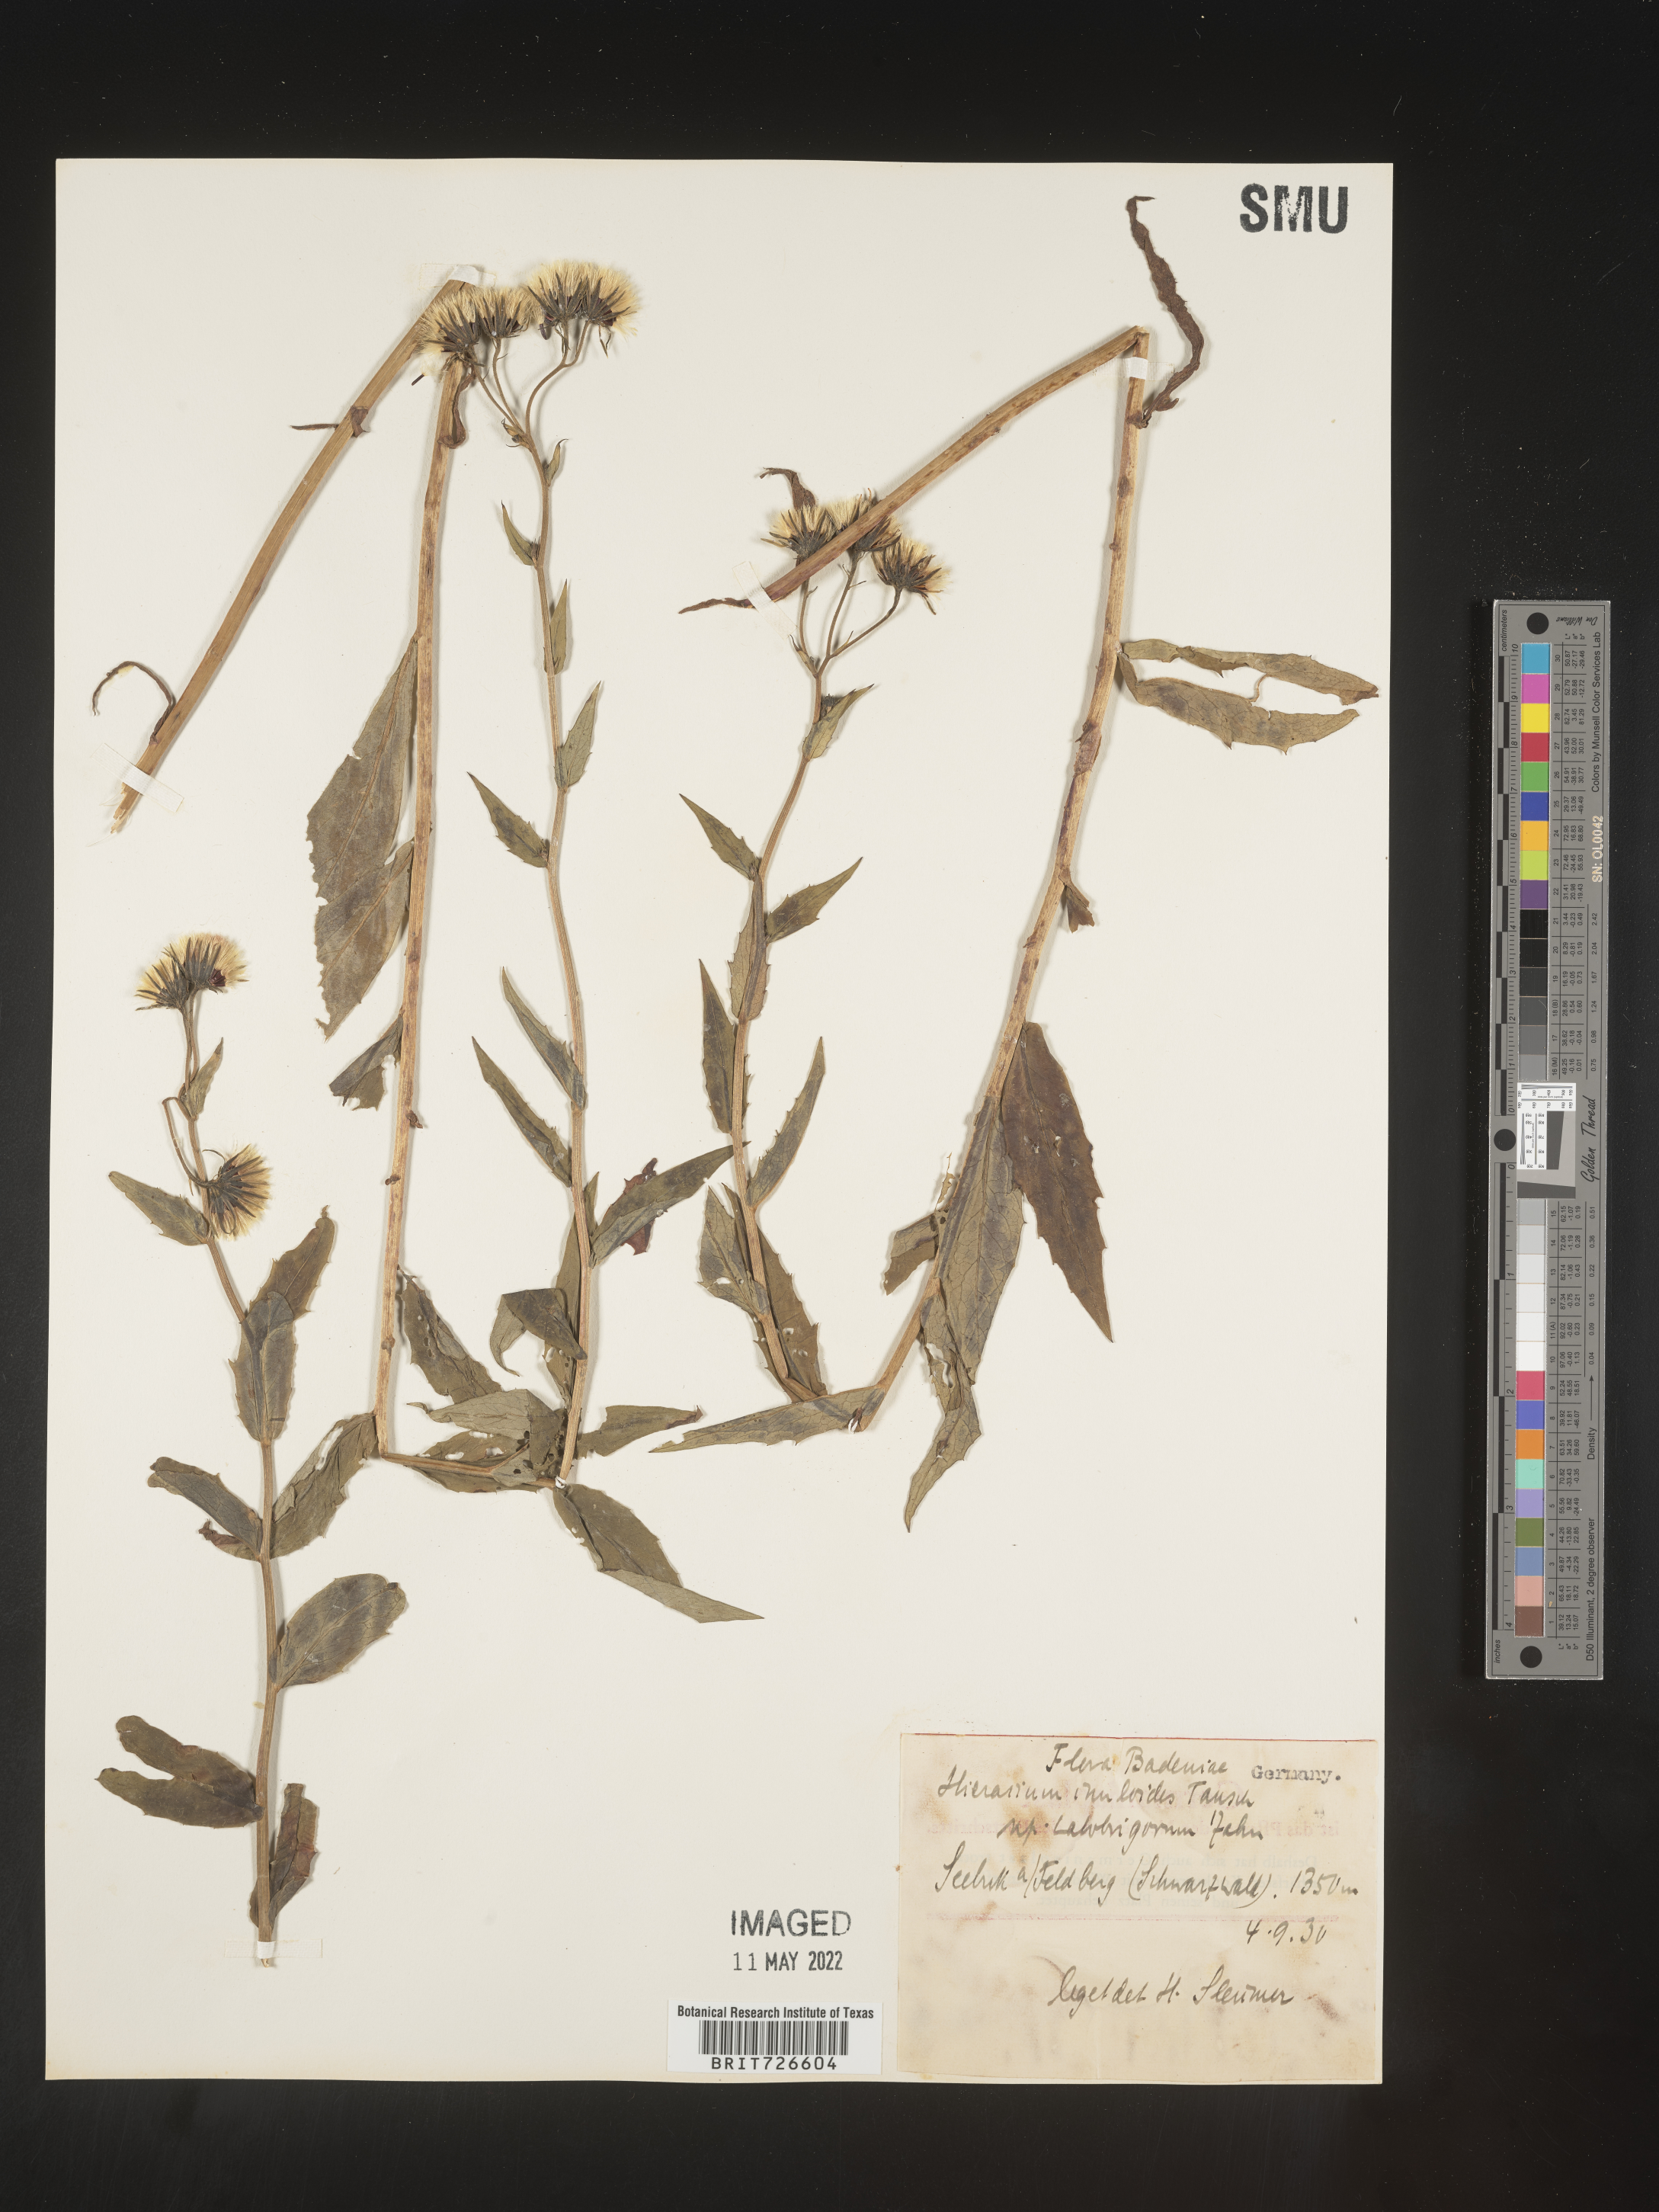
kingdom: Plantae
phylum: Tracheophyta
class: Magnoliopsida
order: Asterales
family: Asteraceae
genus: Hieracium
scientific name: Hieracium
